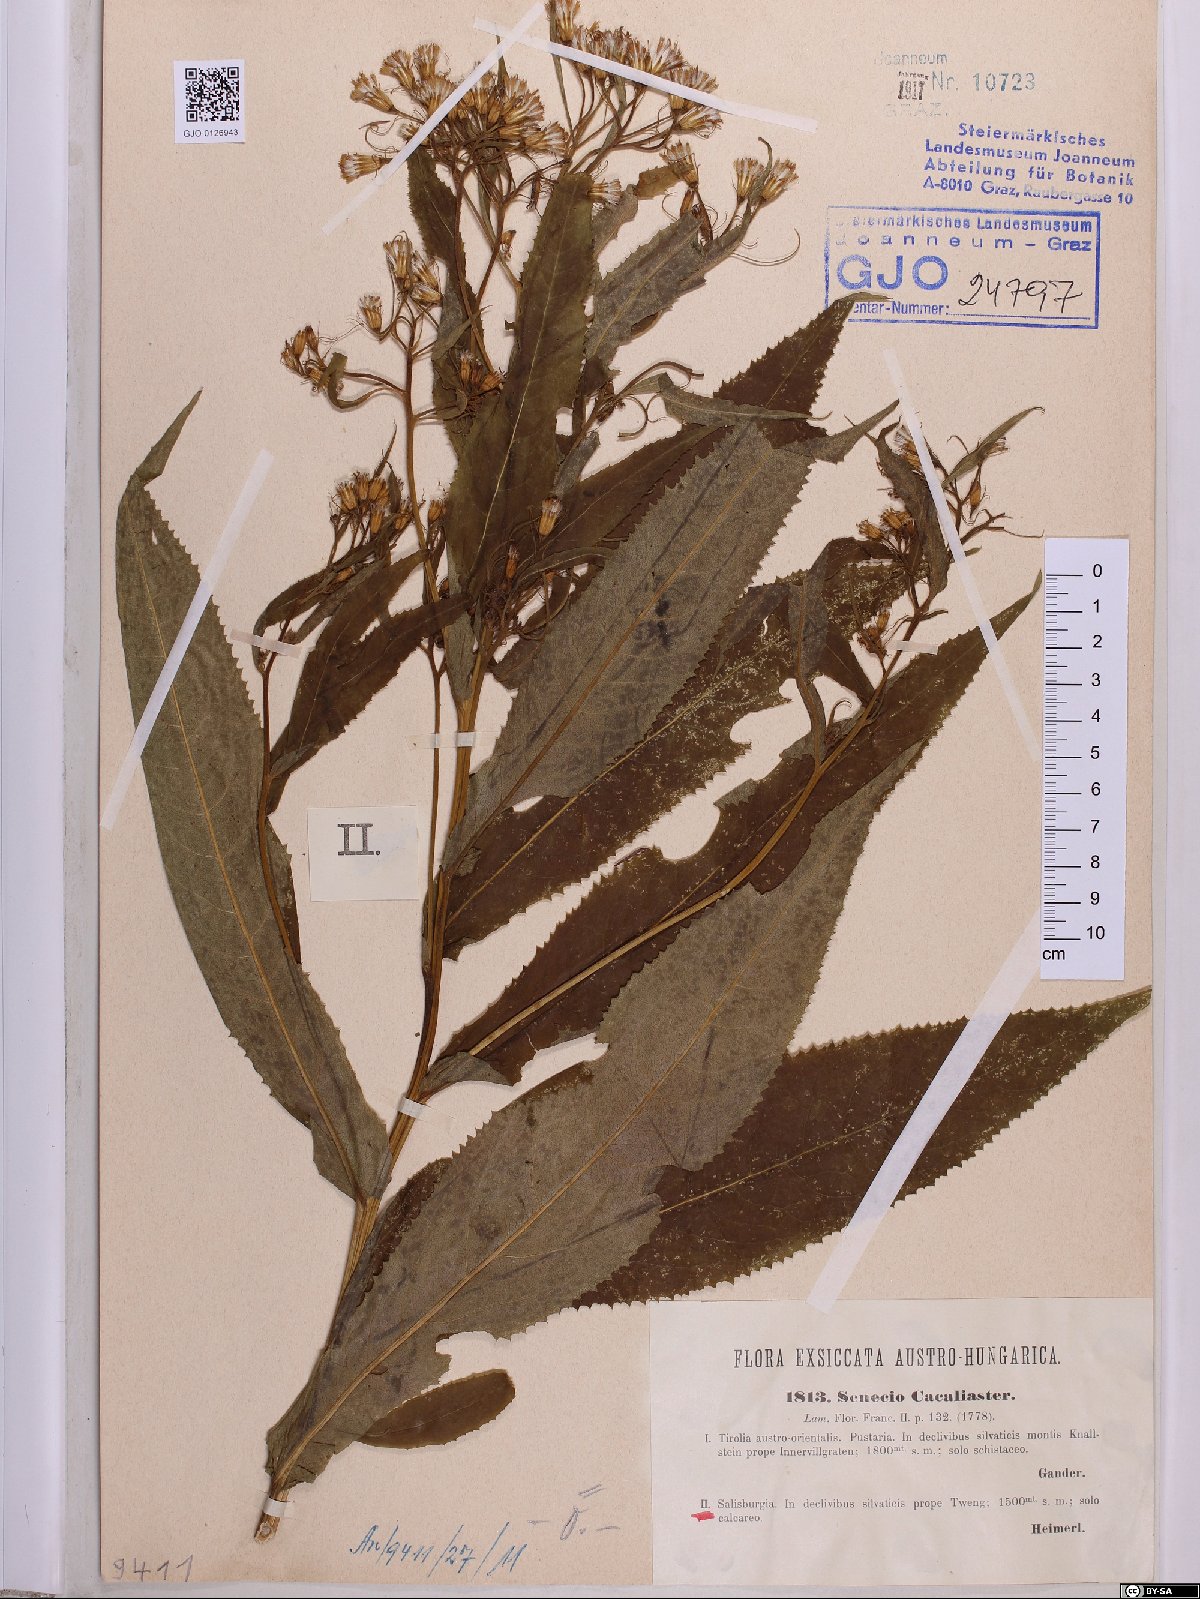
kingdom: Plantae
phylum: Tracheophyta
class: Magnoliopsida
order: Asterales
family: Asteraceae
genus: Senecio
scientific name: Senecio cacaliaster
